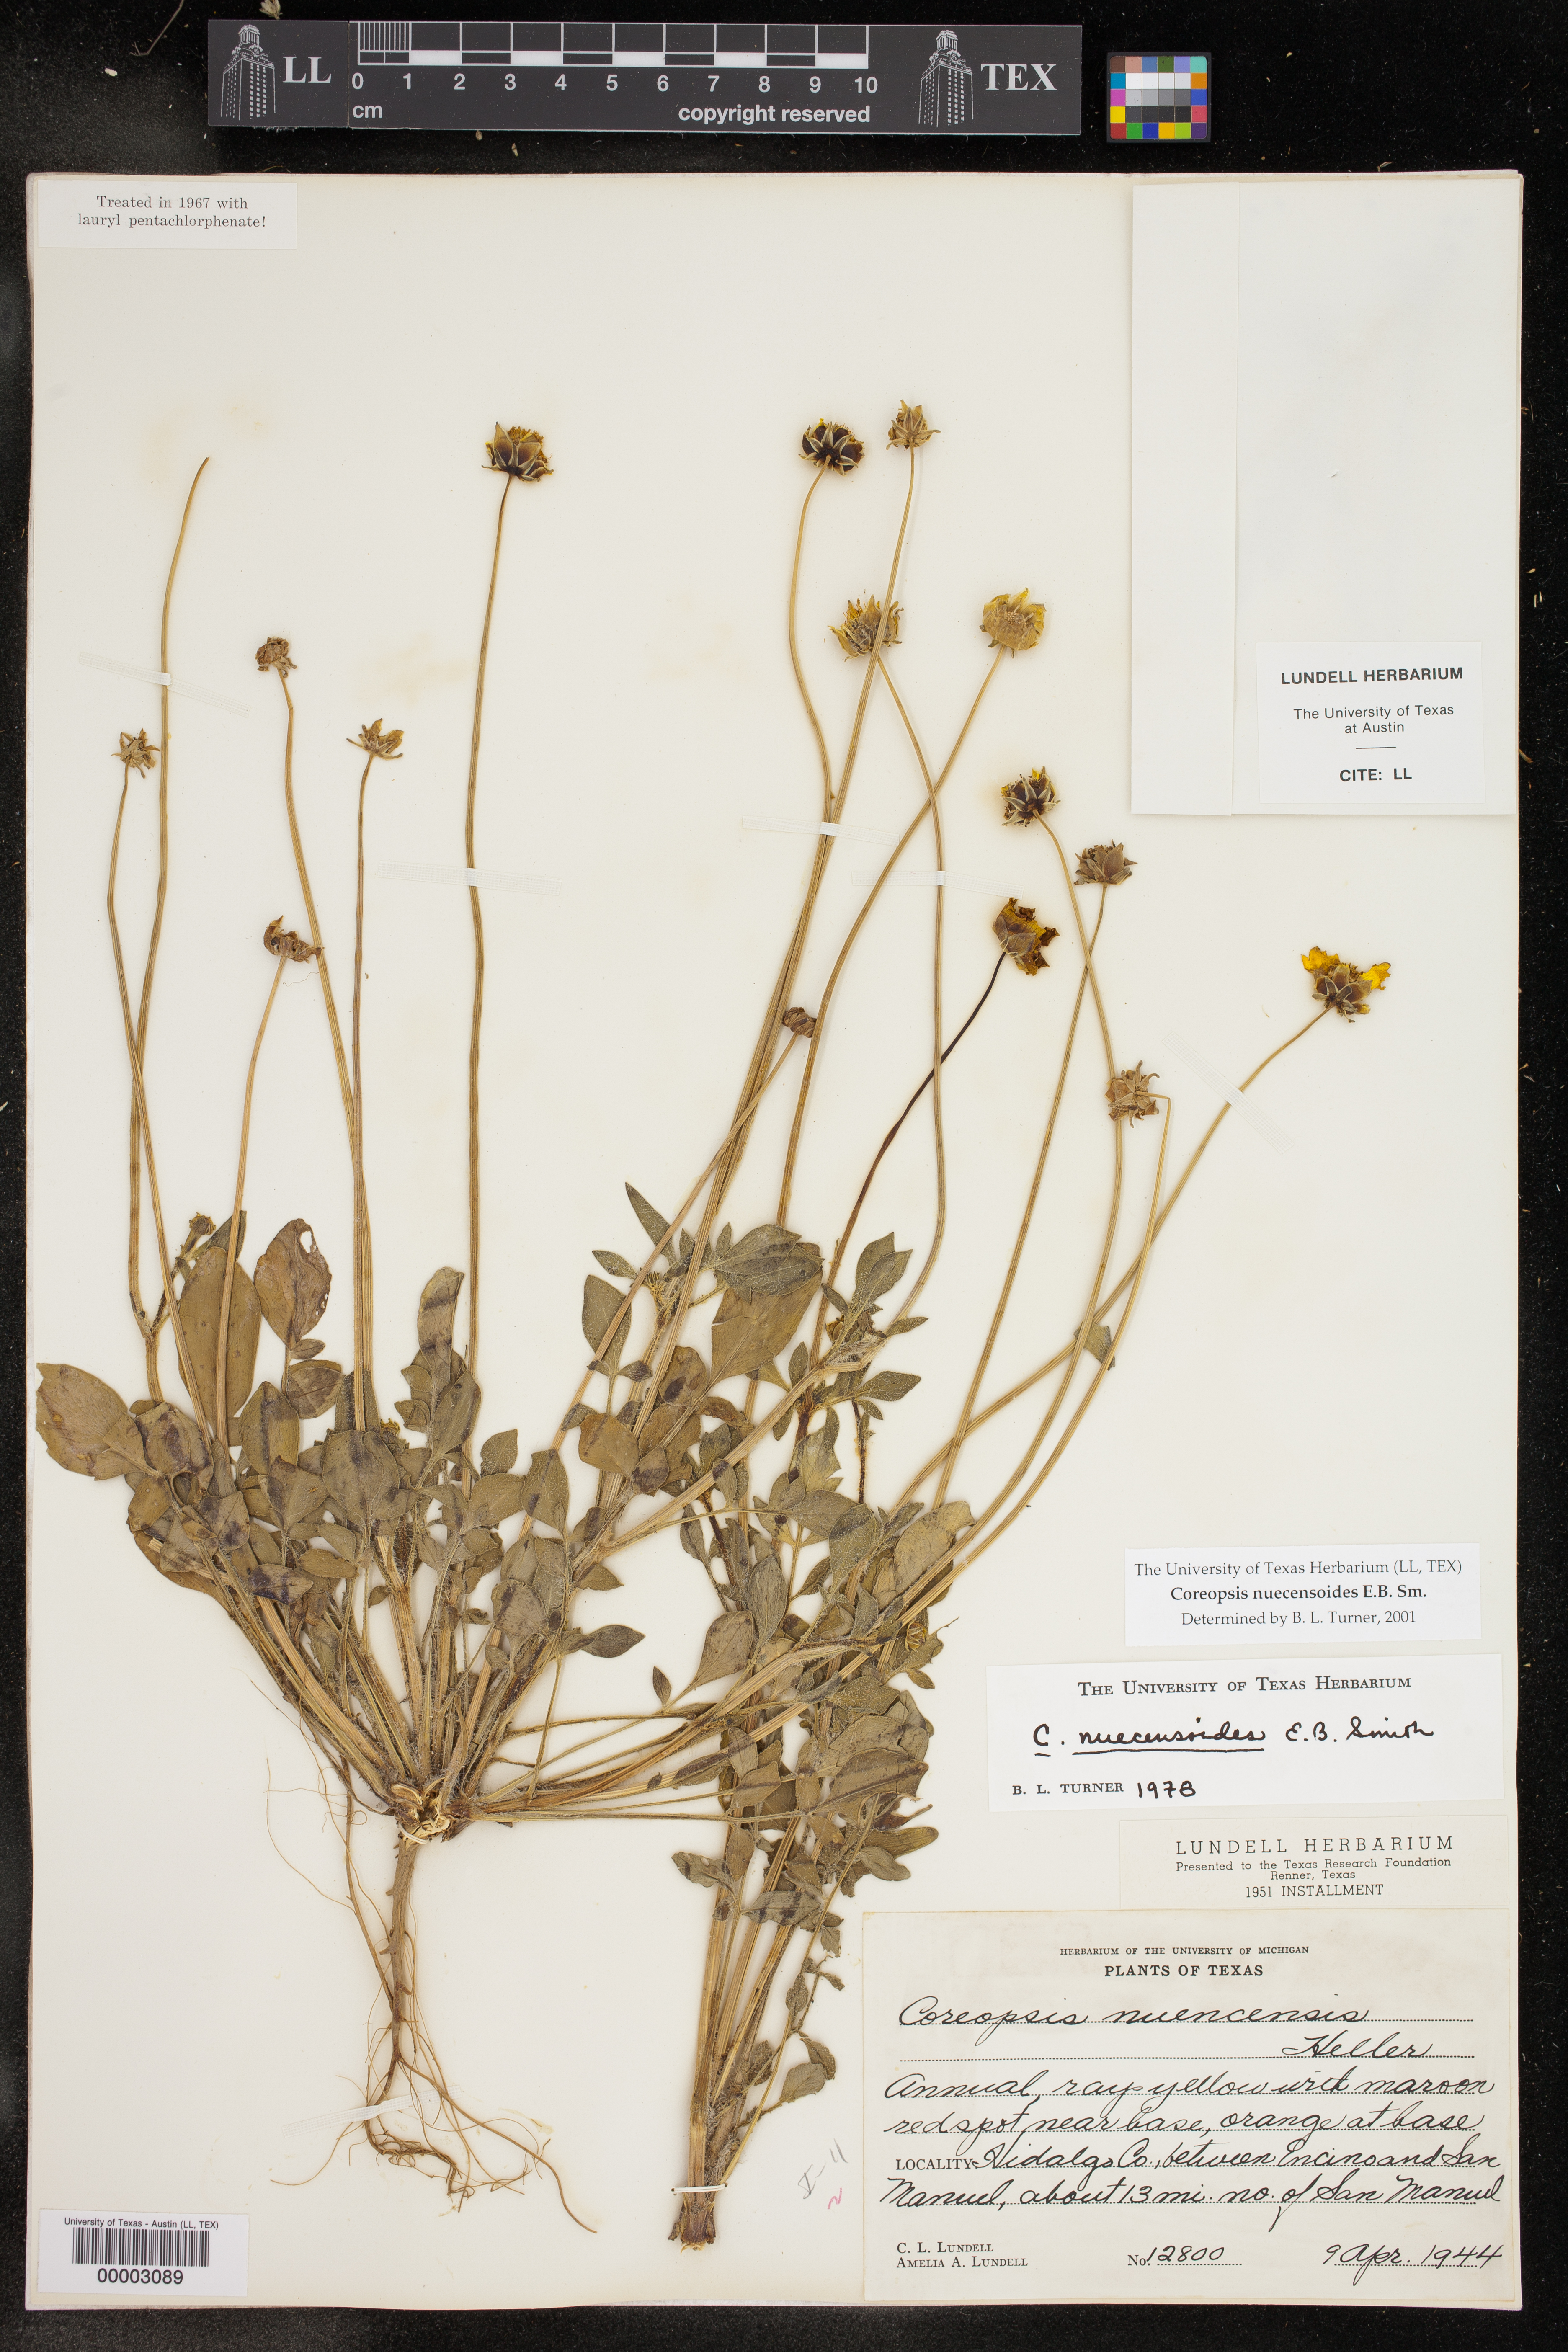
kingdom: Plantae
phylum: Tracheophyta
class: Magnoliopsida
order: Asterales
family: Asteraceae
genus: Coreopsis
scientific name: Coreopsis nuecensis
